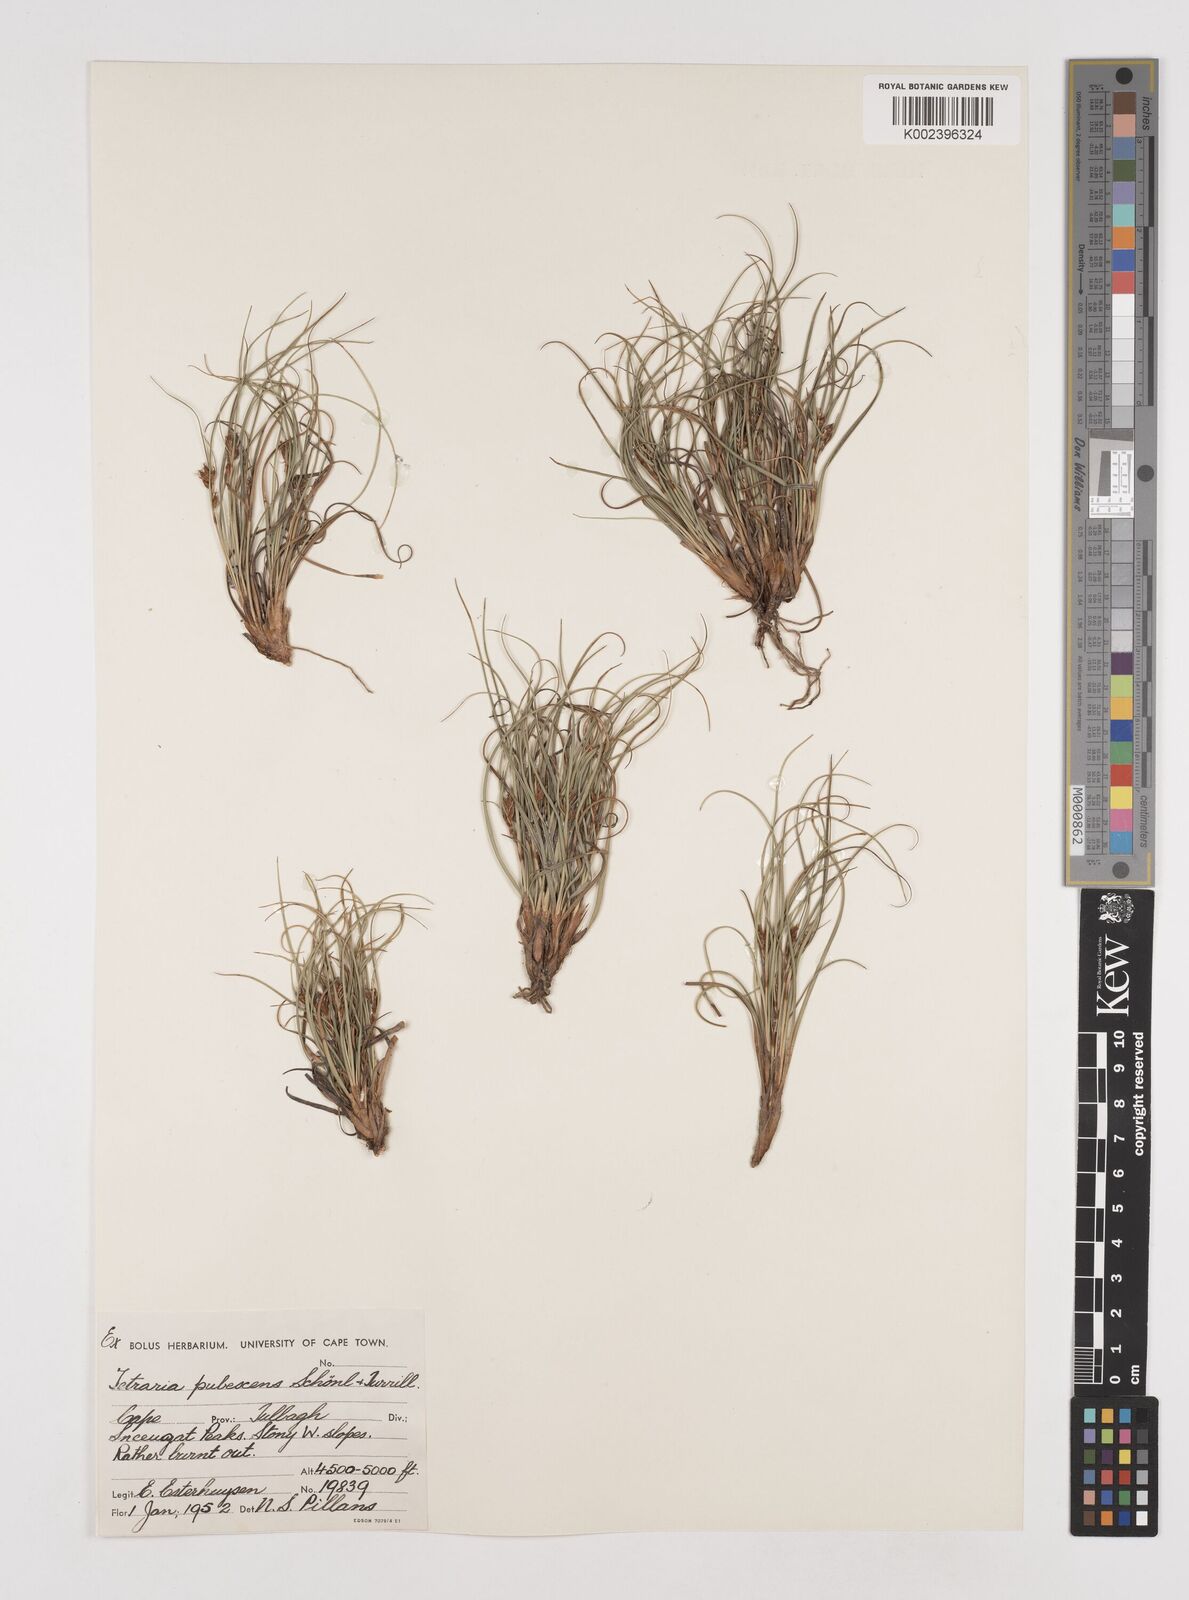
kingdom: Plantae
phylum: Tracheophyta
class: Liliopsida
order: Poales
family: Cyperaceae
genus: Tetraria
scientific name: Tetraria pubescens
